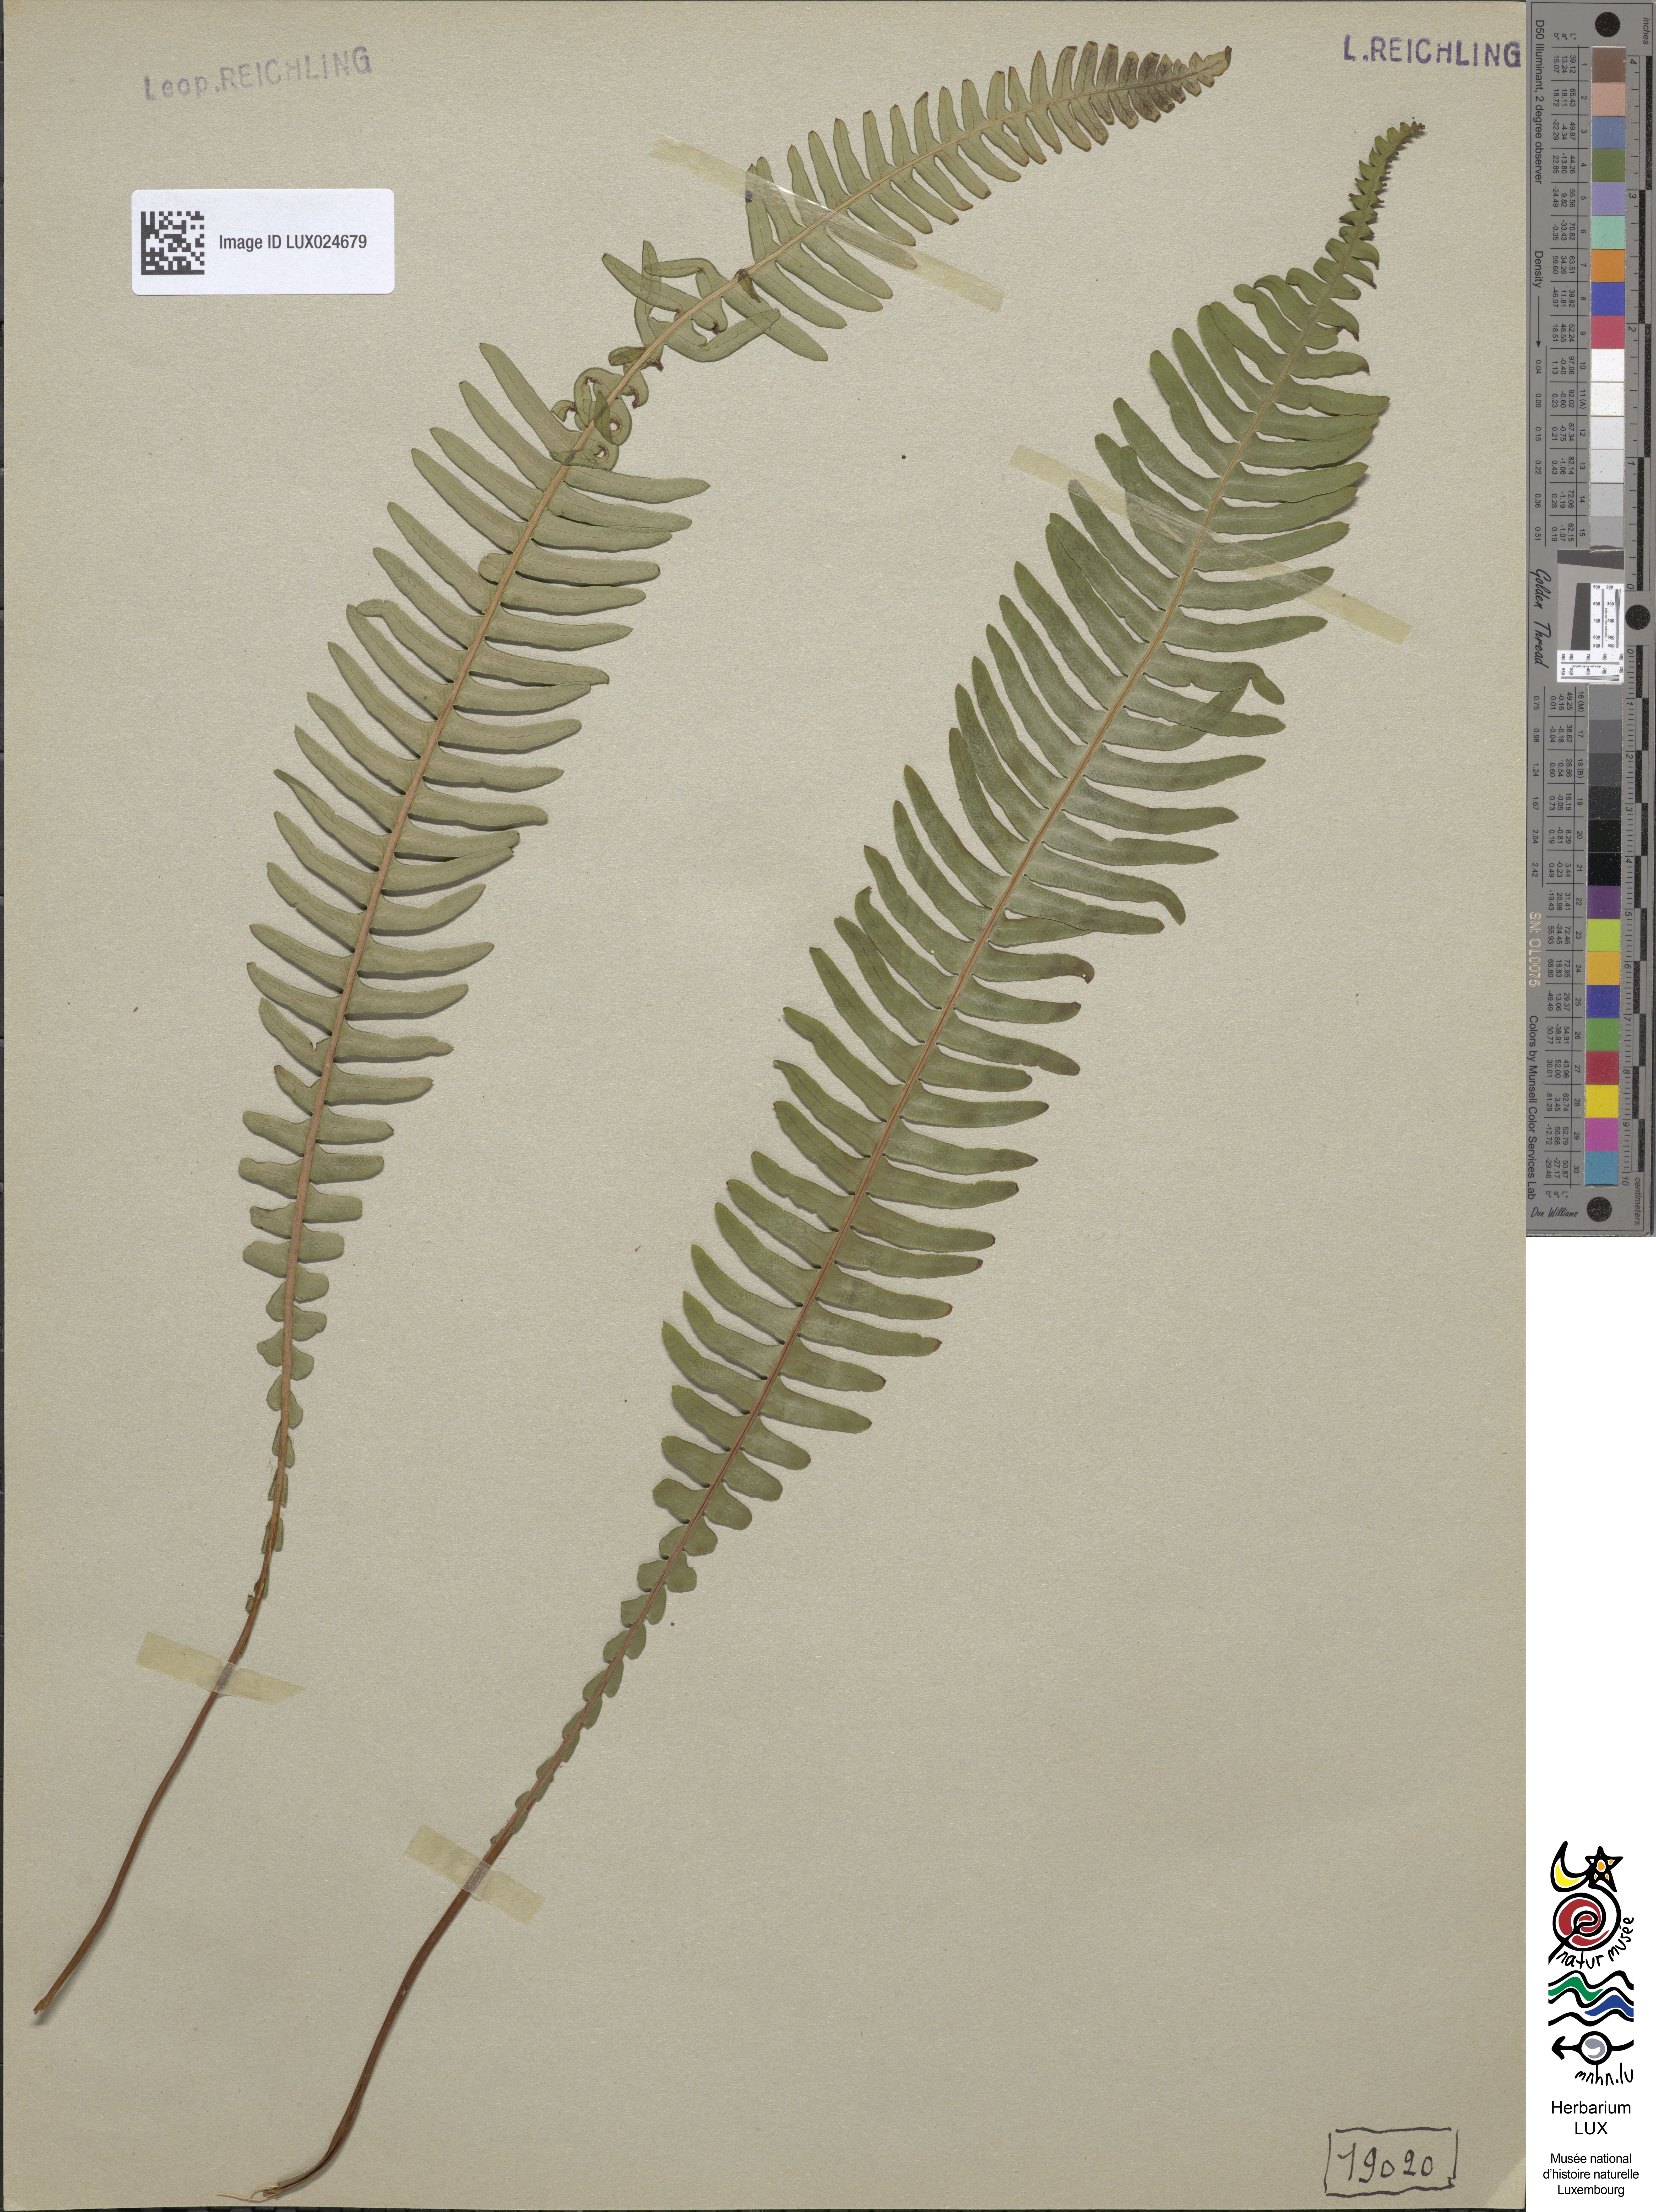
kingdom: Plantae
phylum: Tracheophyta
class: Polypodiopsida
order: Polypodiales
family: Blechnaceae
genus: Struthiopteris
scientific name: Struthiopteris spicant
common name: Deer fern
